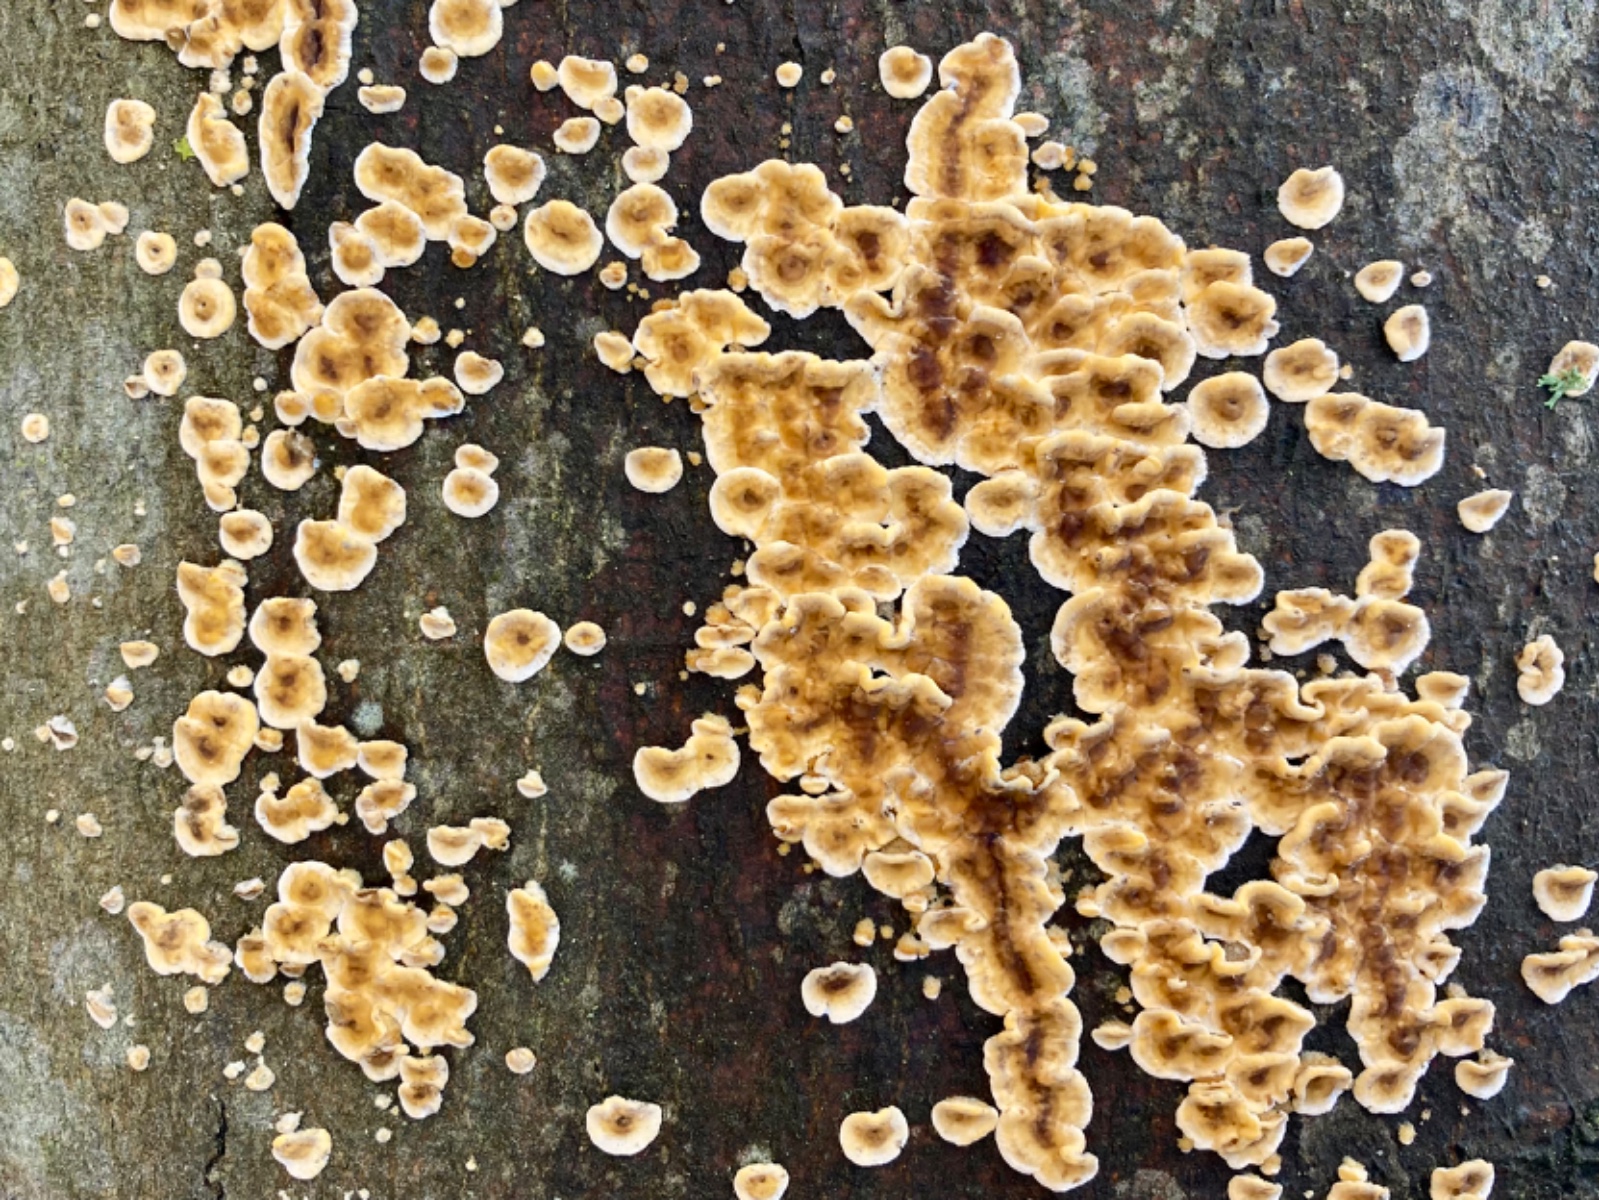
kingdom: Fungi
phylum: Basidiomycota
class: Agaricomycetes
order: Russulales
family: Stereaceae
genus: Stereum
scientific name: Stereum hirsutum
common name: håret lædersvamp
